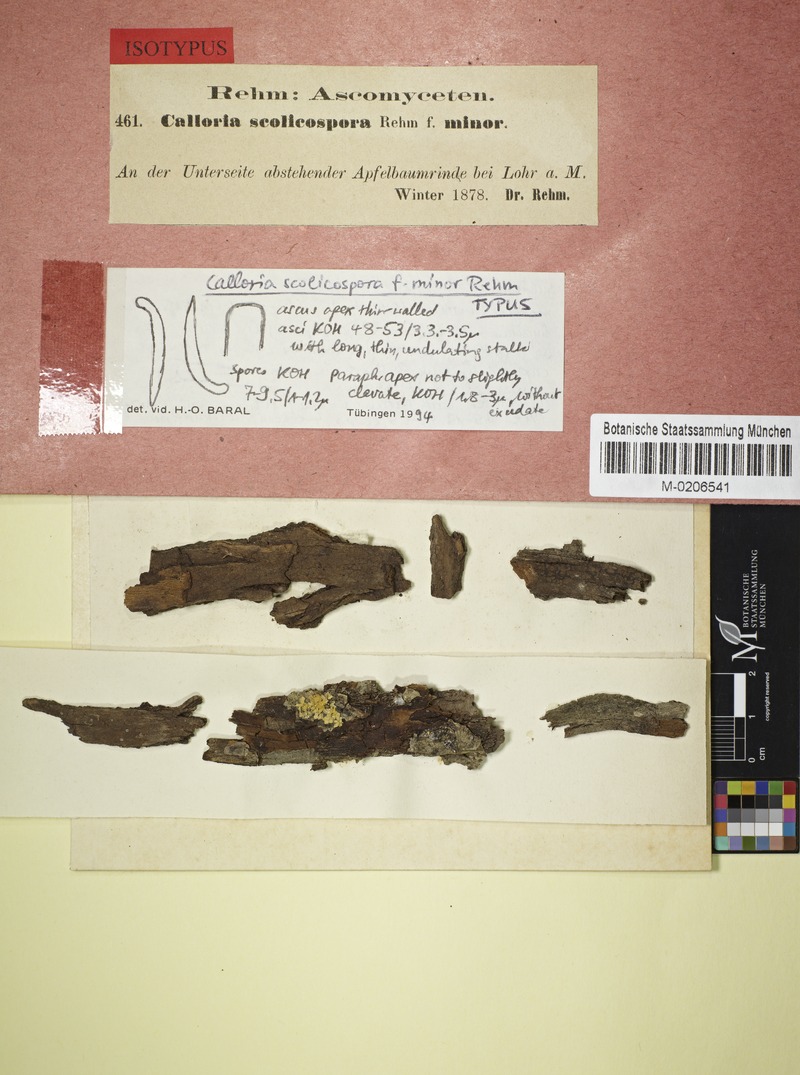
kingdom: Fungi
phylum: Ascomycota
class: Orbiliomycetes
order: Orbiliales
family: Orbiliaceae
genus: Orbilia
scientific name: Orbilia aurantiorubra
